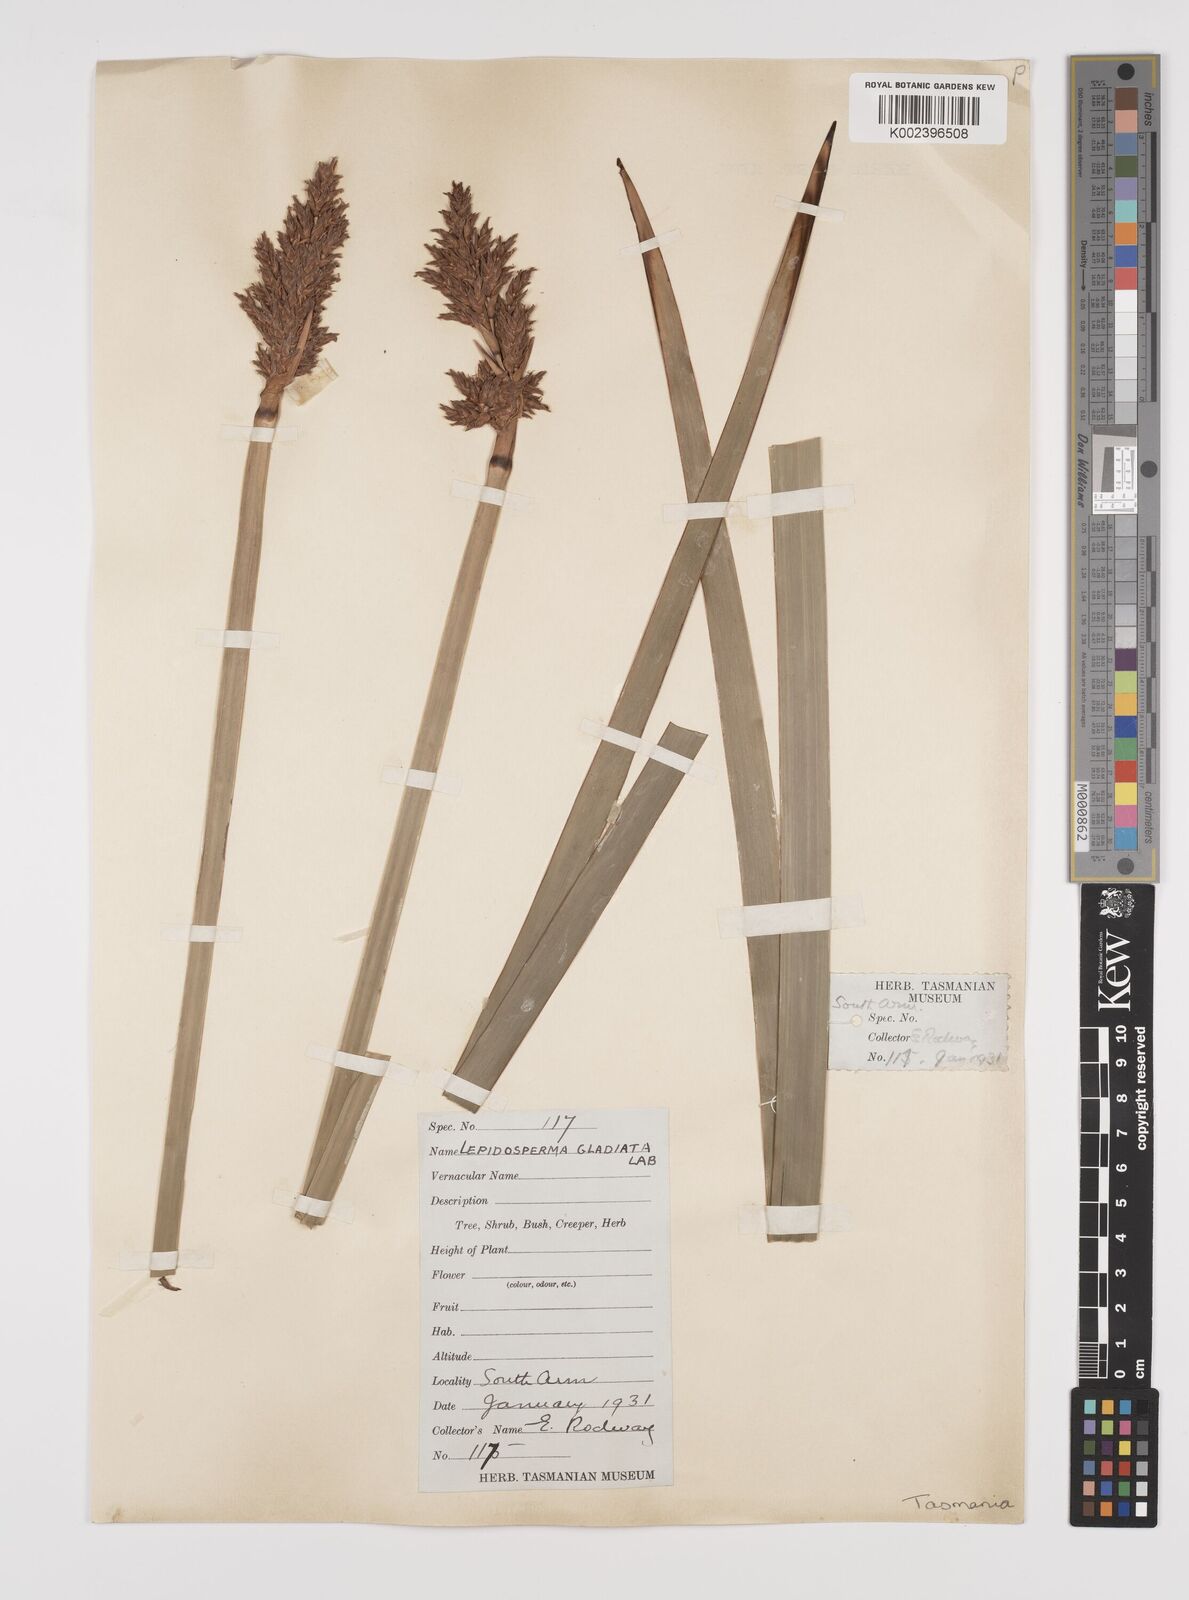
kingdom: Plantae
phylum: Tracheophyta
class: Liliopsida
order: Poales
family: Cyperaceae
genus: Lepidosperma
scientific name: Lepidosperma gladiatum
